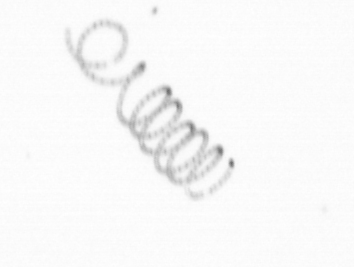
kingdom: Chromista
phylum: Ochrophyta
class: Bacillariophyceae
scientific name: Bacillariophyceae
